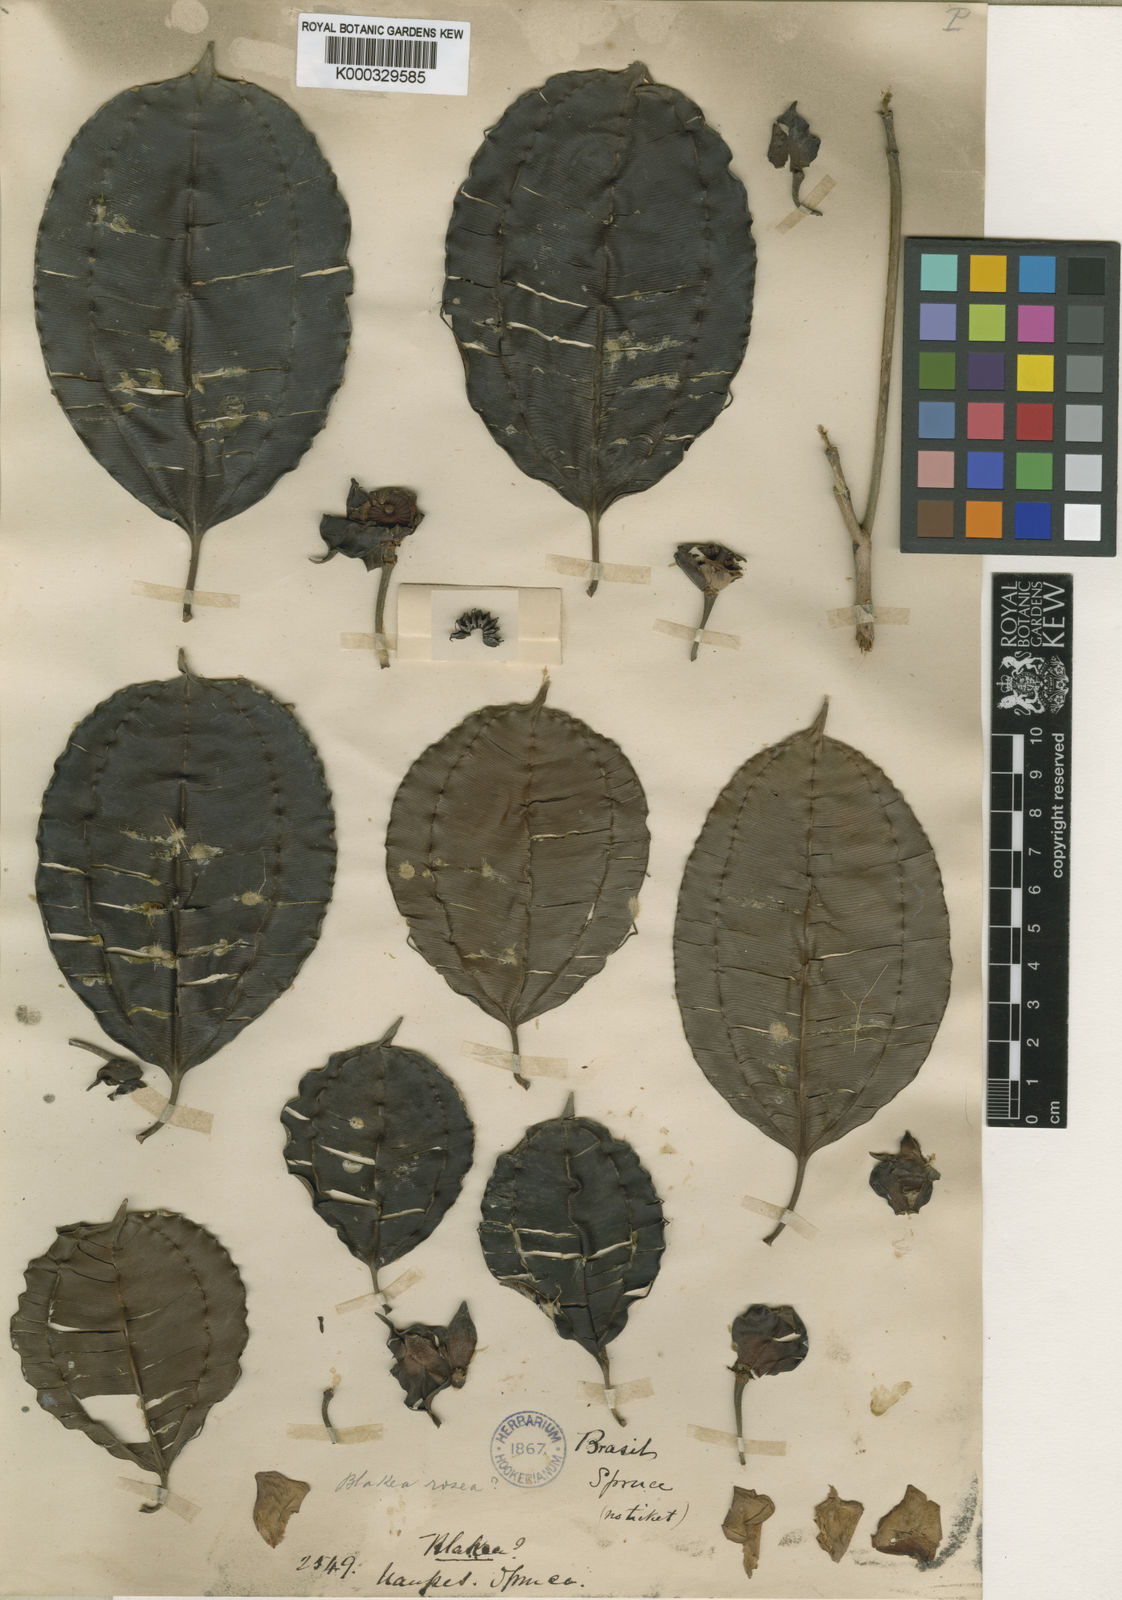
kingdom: Plantae
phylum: Tracheophyta
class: Magnoliopsida
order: Myrtales
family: Melastomataceae
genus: Blakea
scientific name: Blakea brasiliensis
